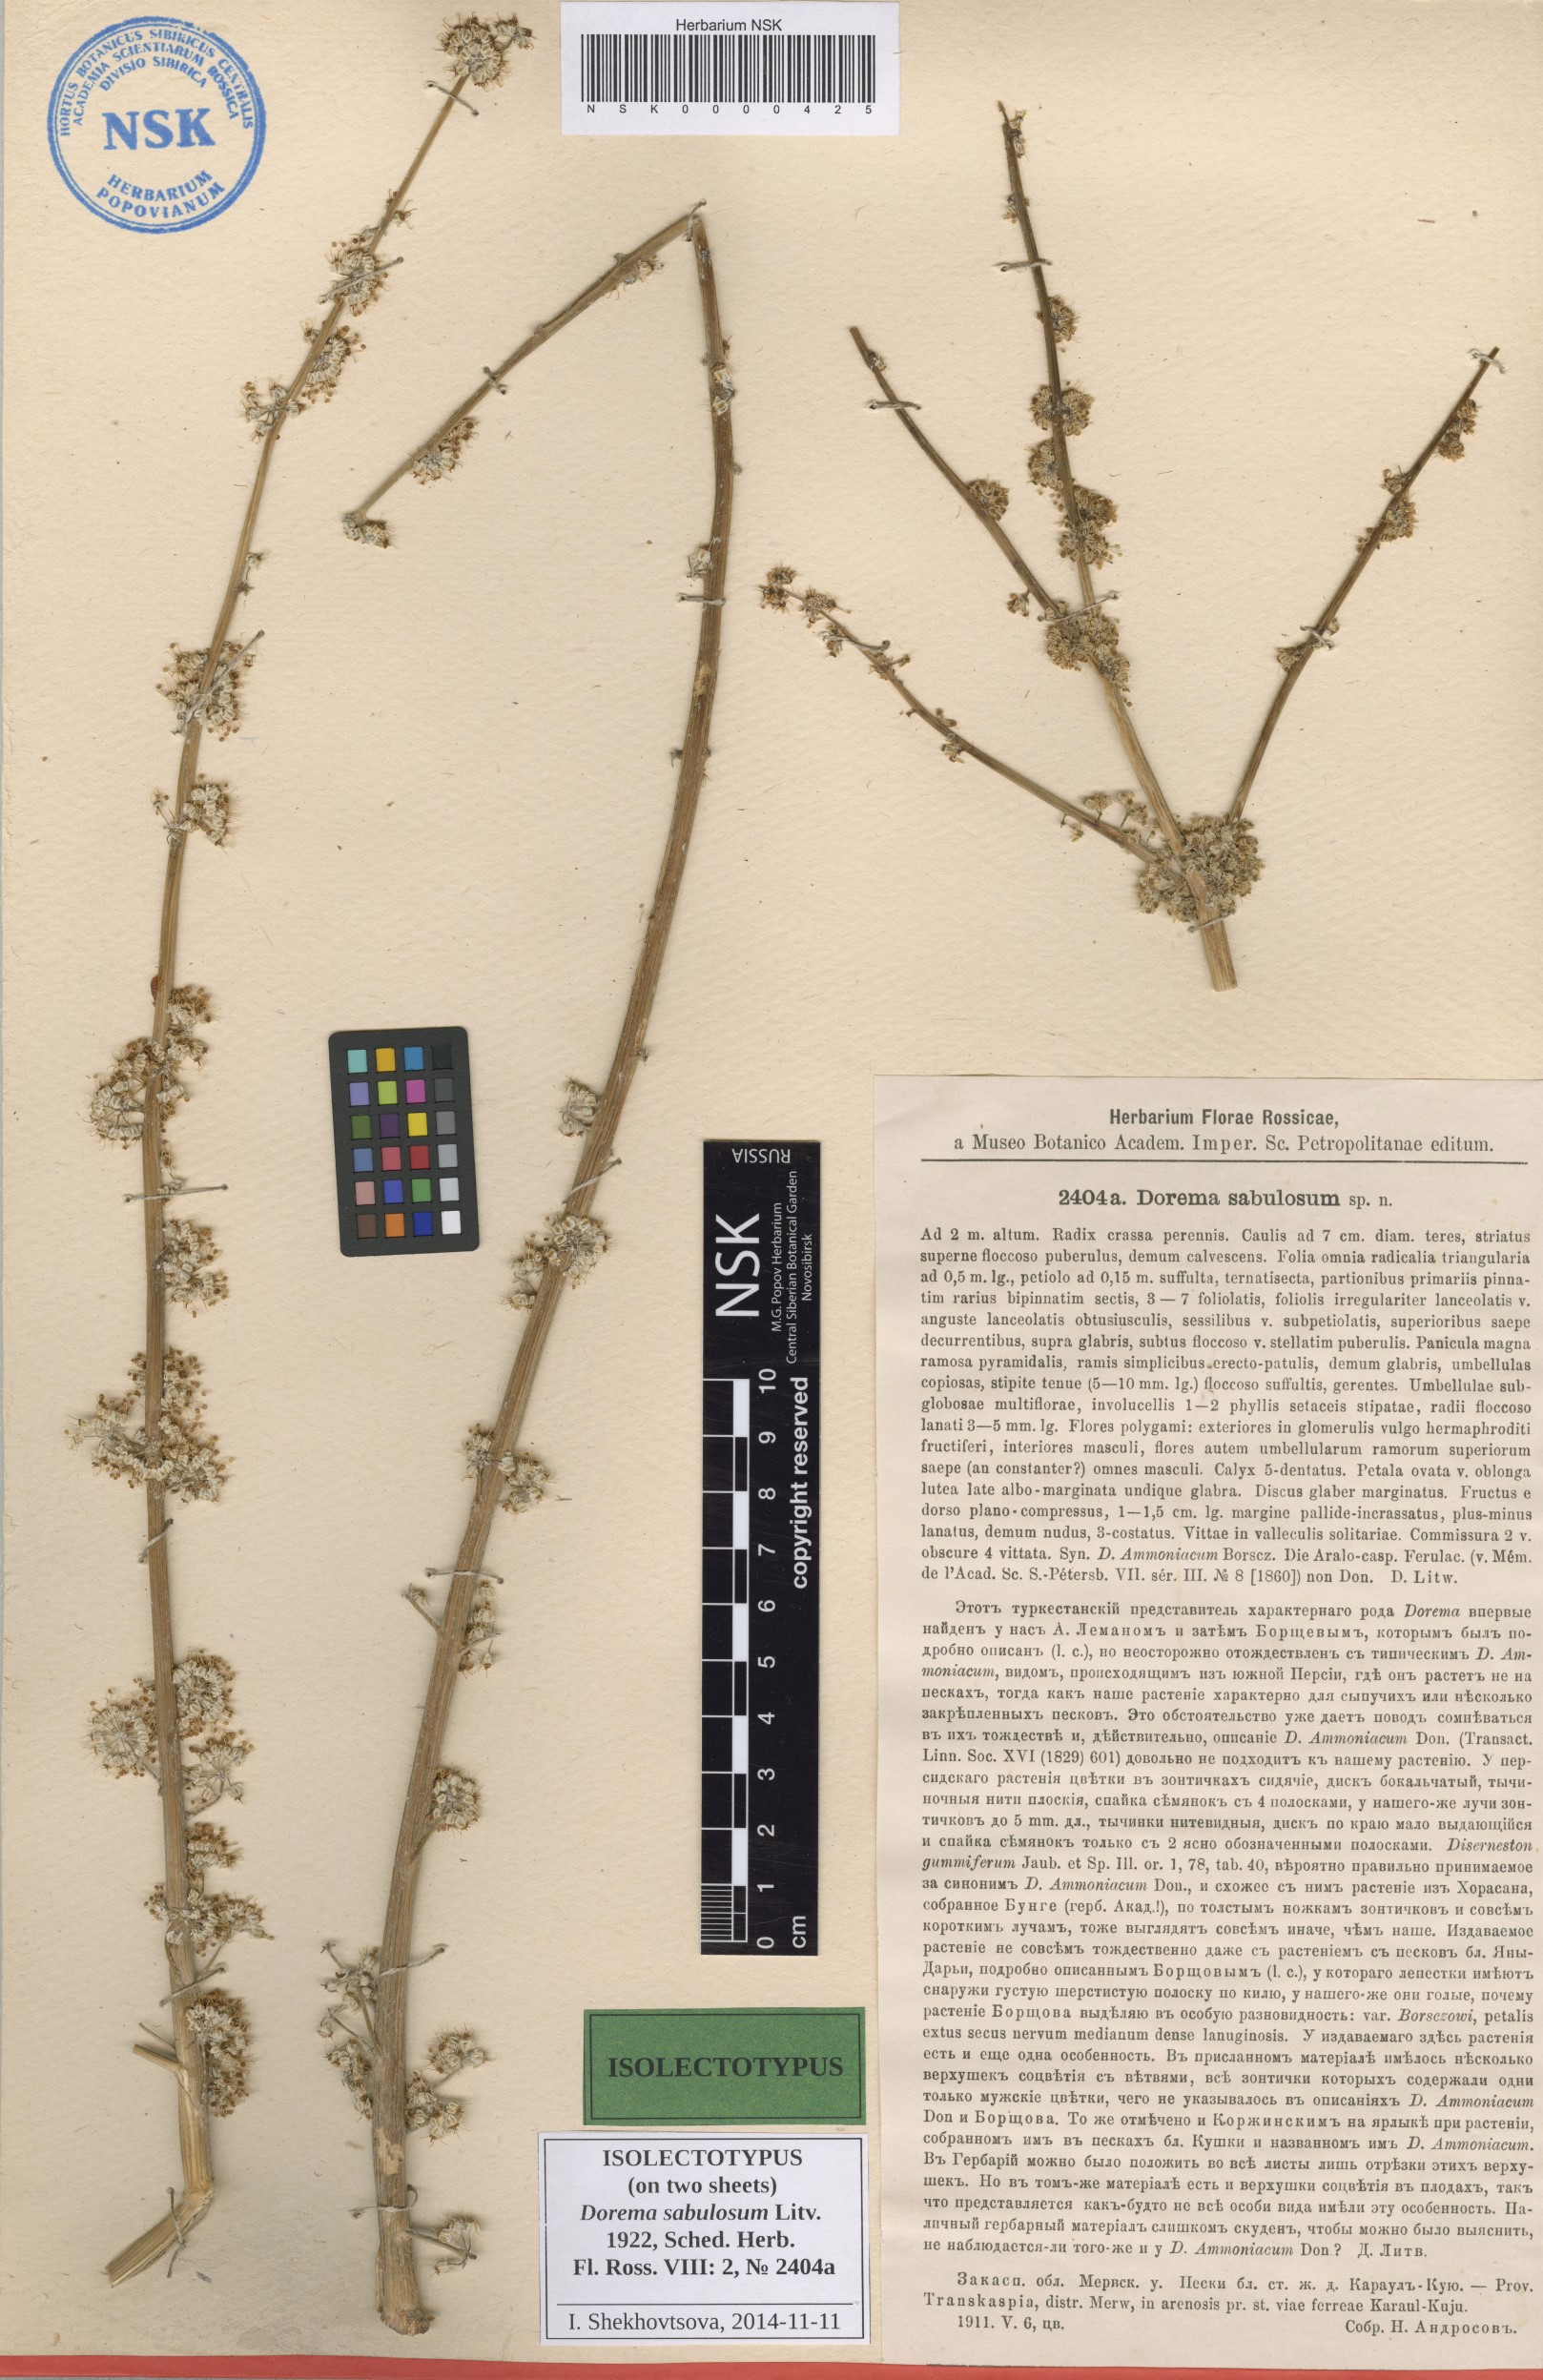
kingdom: Plantae
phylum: Tracheophyta
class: Magnoliopsida
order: Apiales
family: Apiaceae
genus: Ferula
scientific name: Ferula sabulosum
